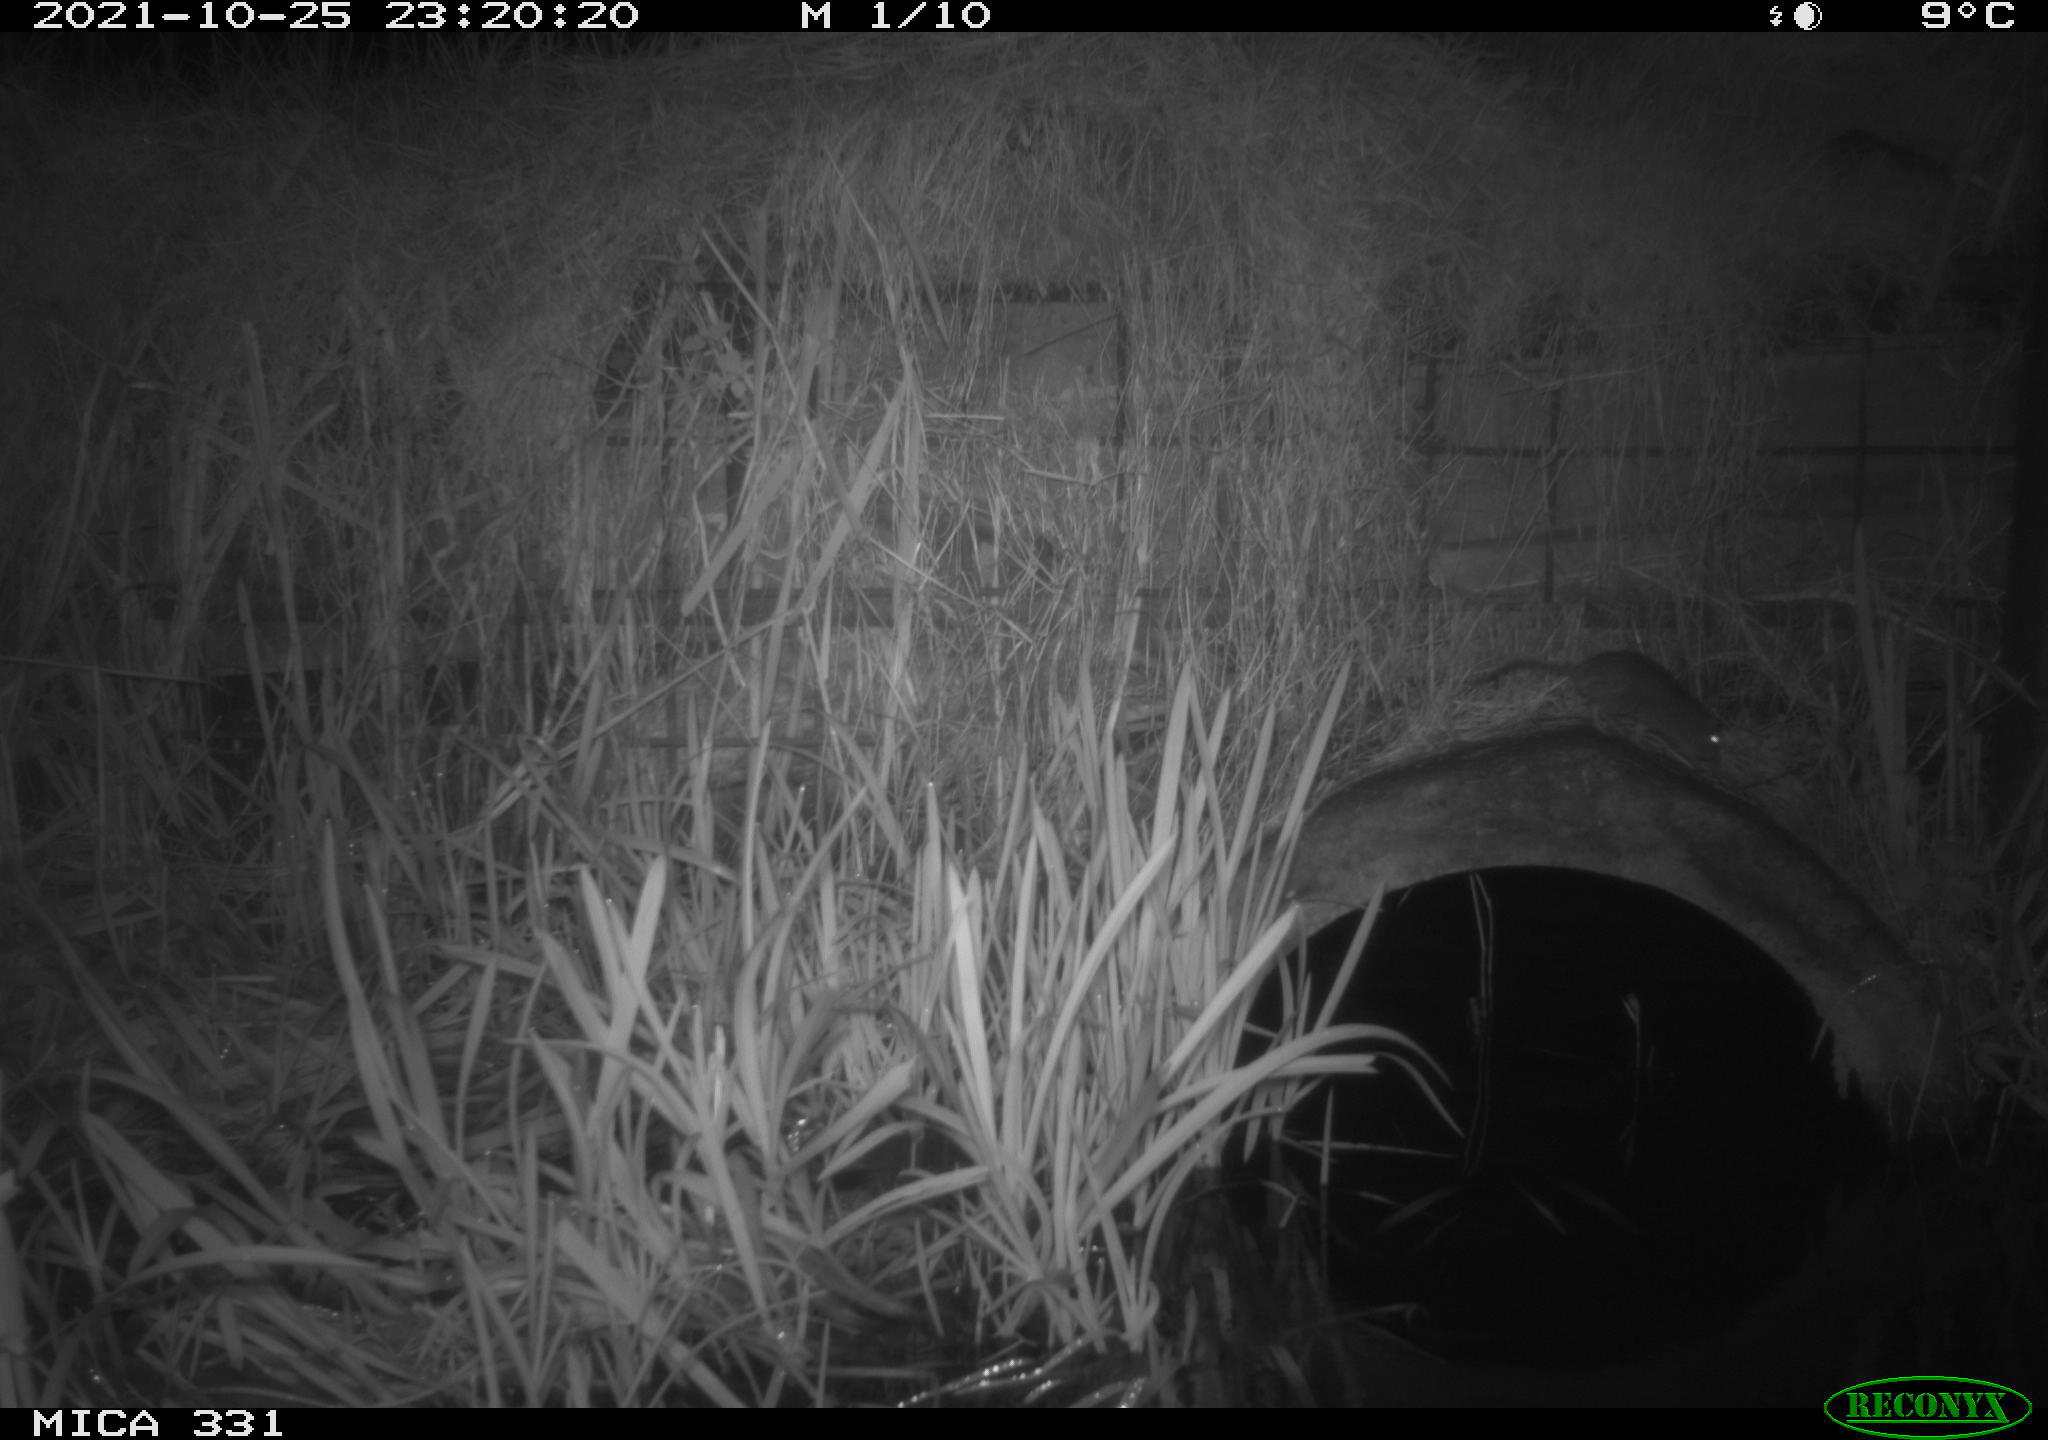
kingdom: Animalia
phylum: Chordata
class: Mammalia
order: Rodentia
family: Muridae
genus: Rattus
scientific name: Rattus norvegicus
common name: Brown rat
